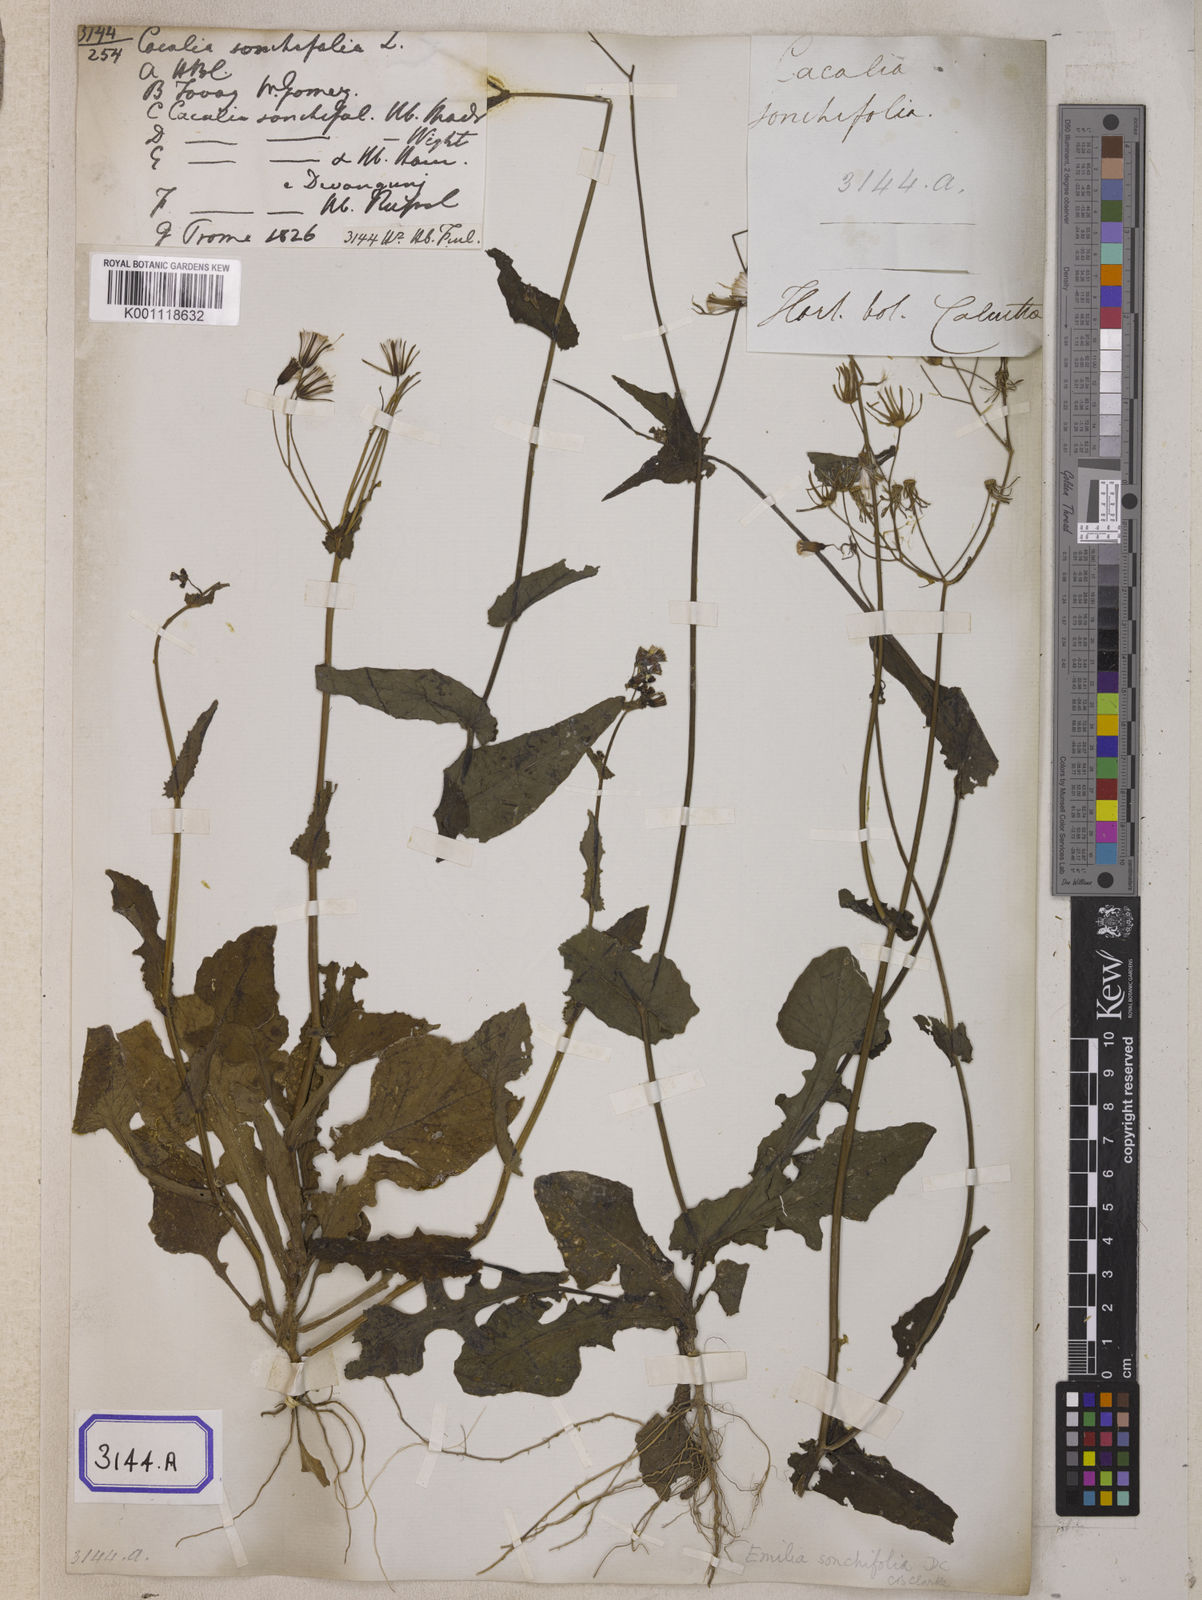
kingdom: Plantae
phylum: Tracheophyta
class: Magnoliopsida
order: Asterales
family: Asteraceae
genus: Launaea
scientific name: Launaea remotiflora
